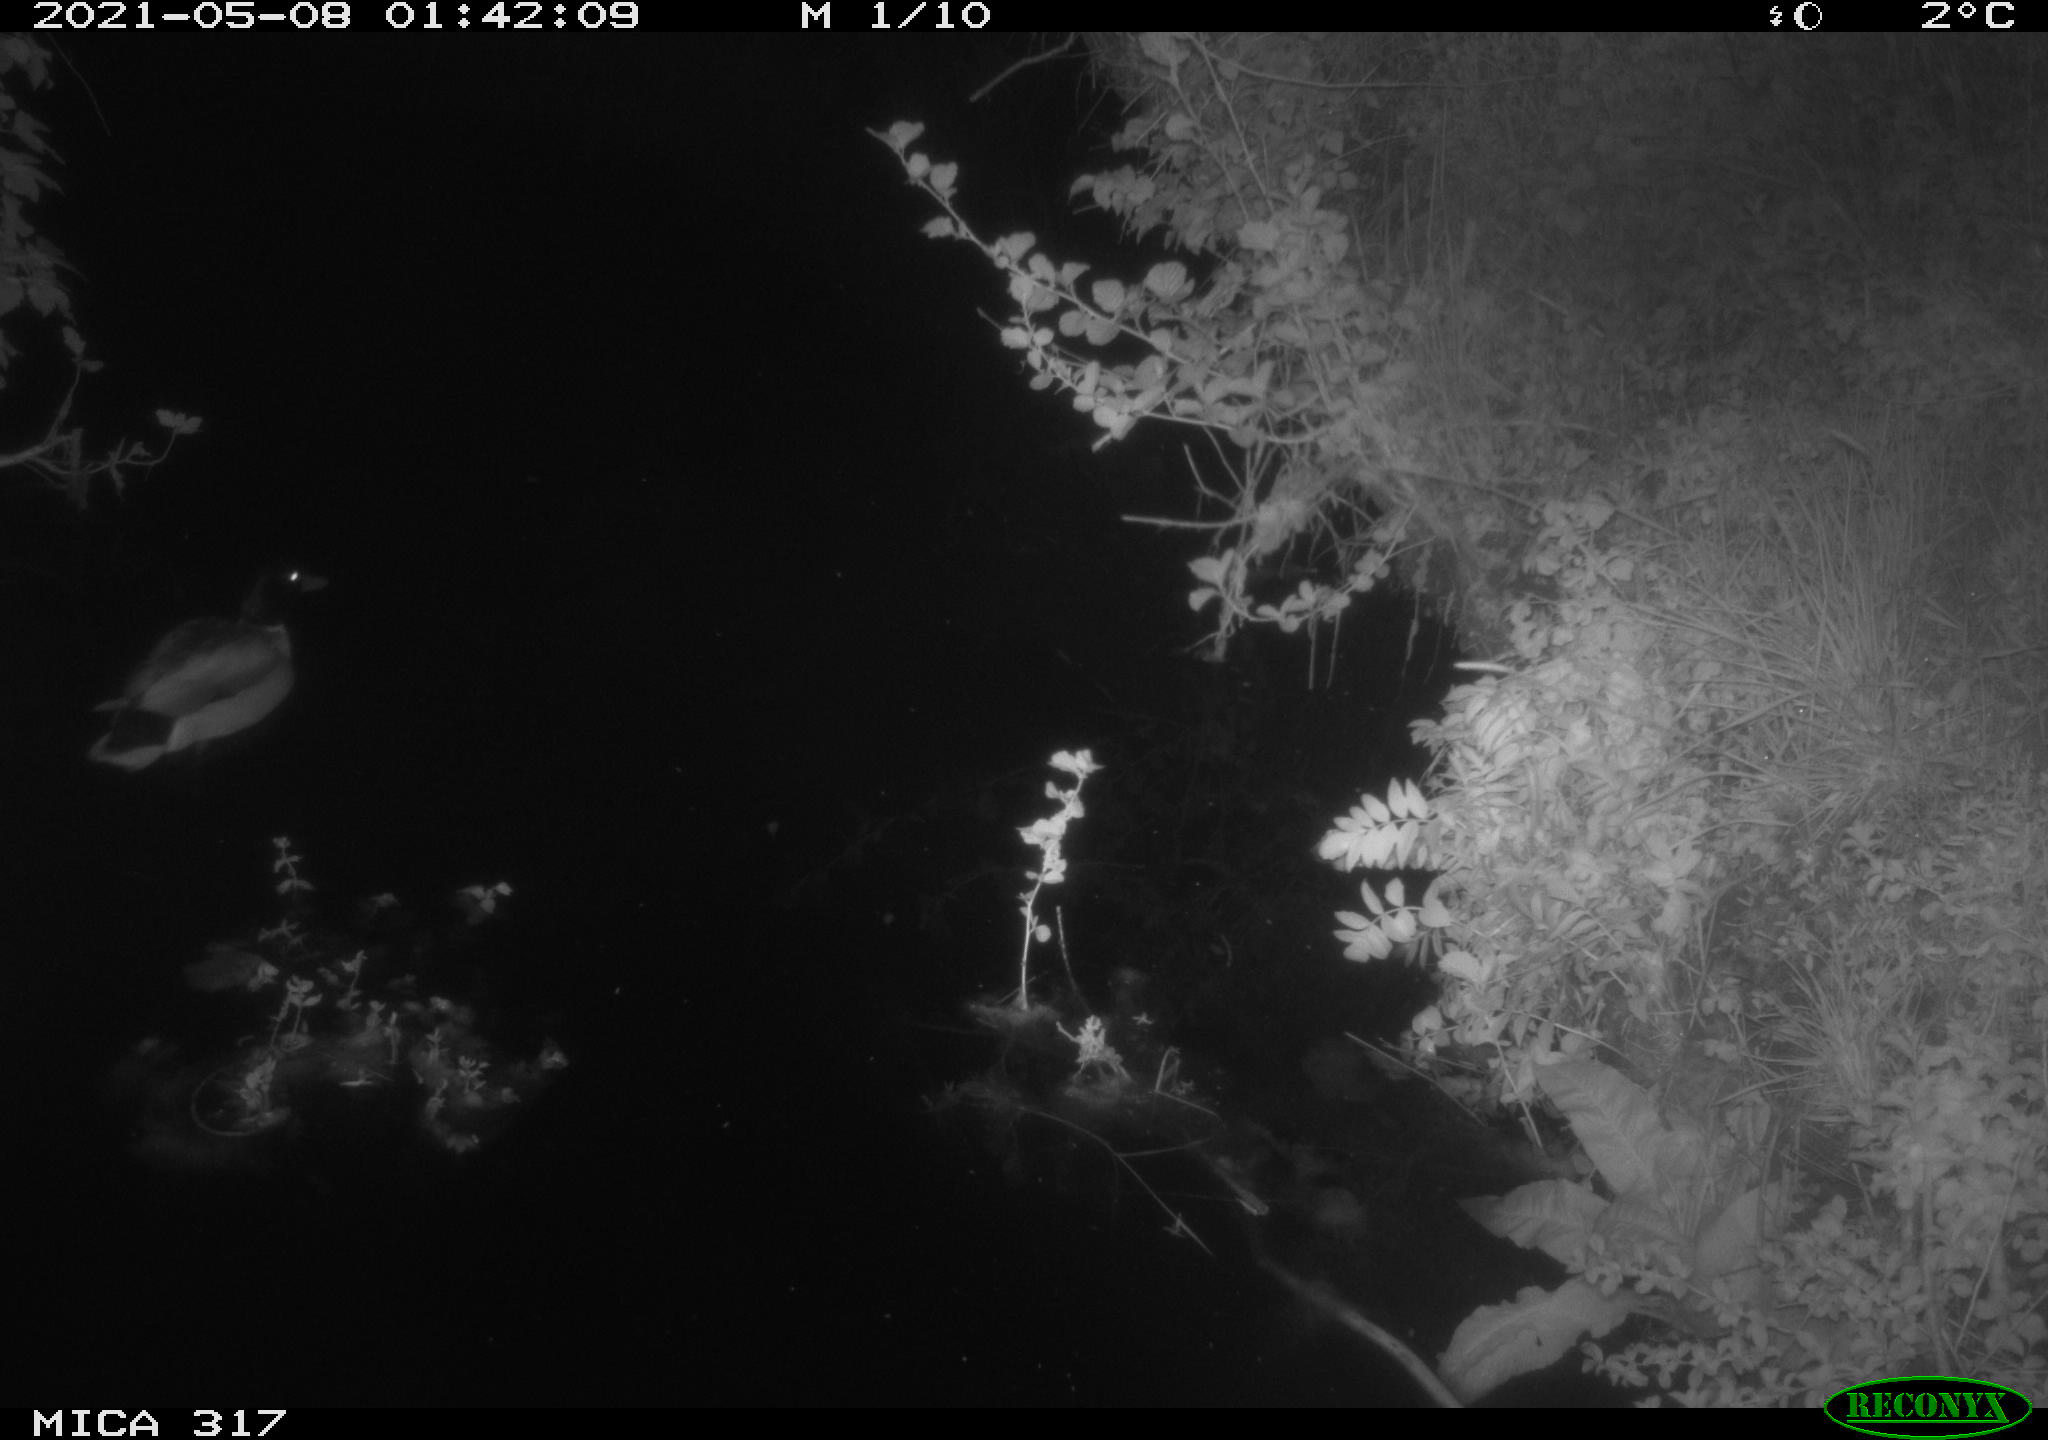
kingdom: Animalia
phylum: Chordata
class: Aves
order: Anseriformes
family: Anatidae
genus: Anas
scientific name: Anas
